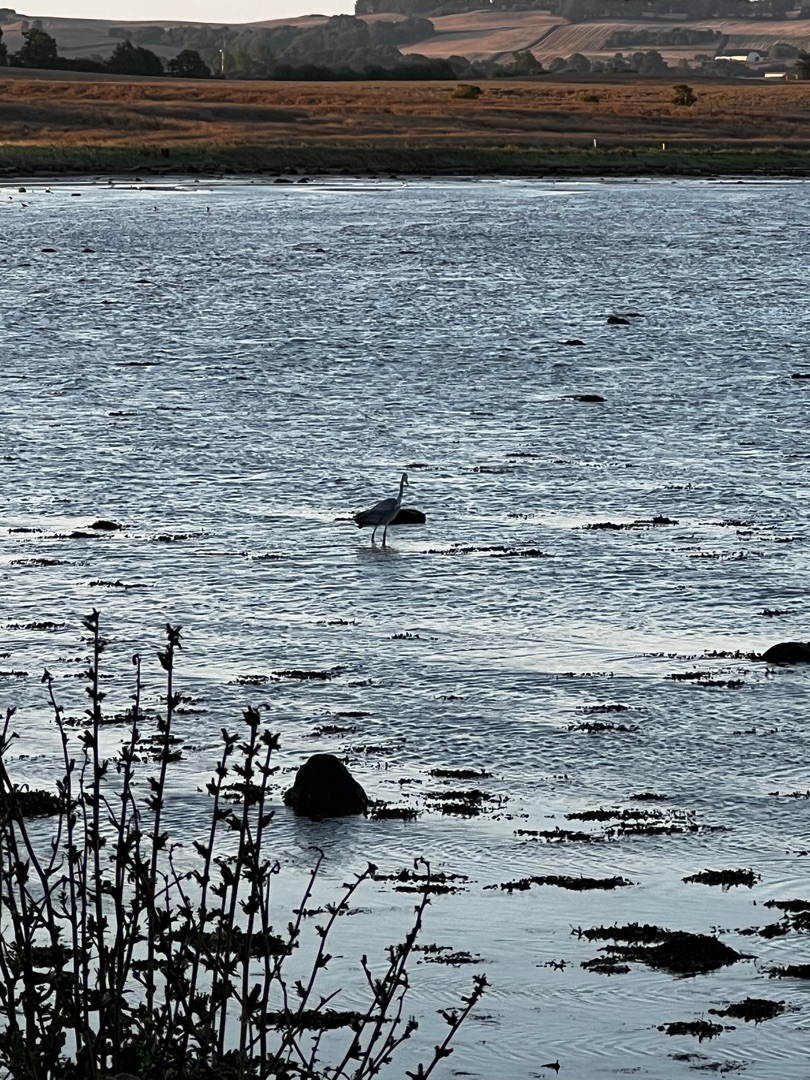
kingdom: Animalia
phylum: Chordata
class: Aves
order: Pelecaniformes
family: Ardeidae
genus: Ardea
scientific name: Ardea cinerea
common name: Fiskehejre
